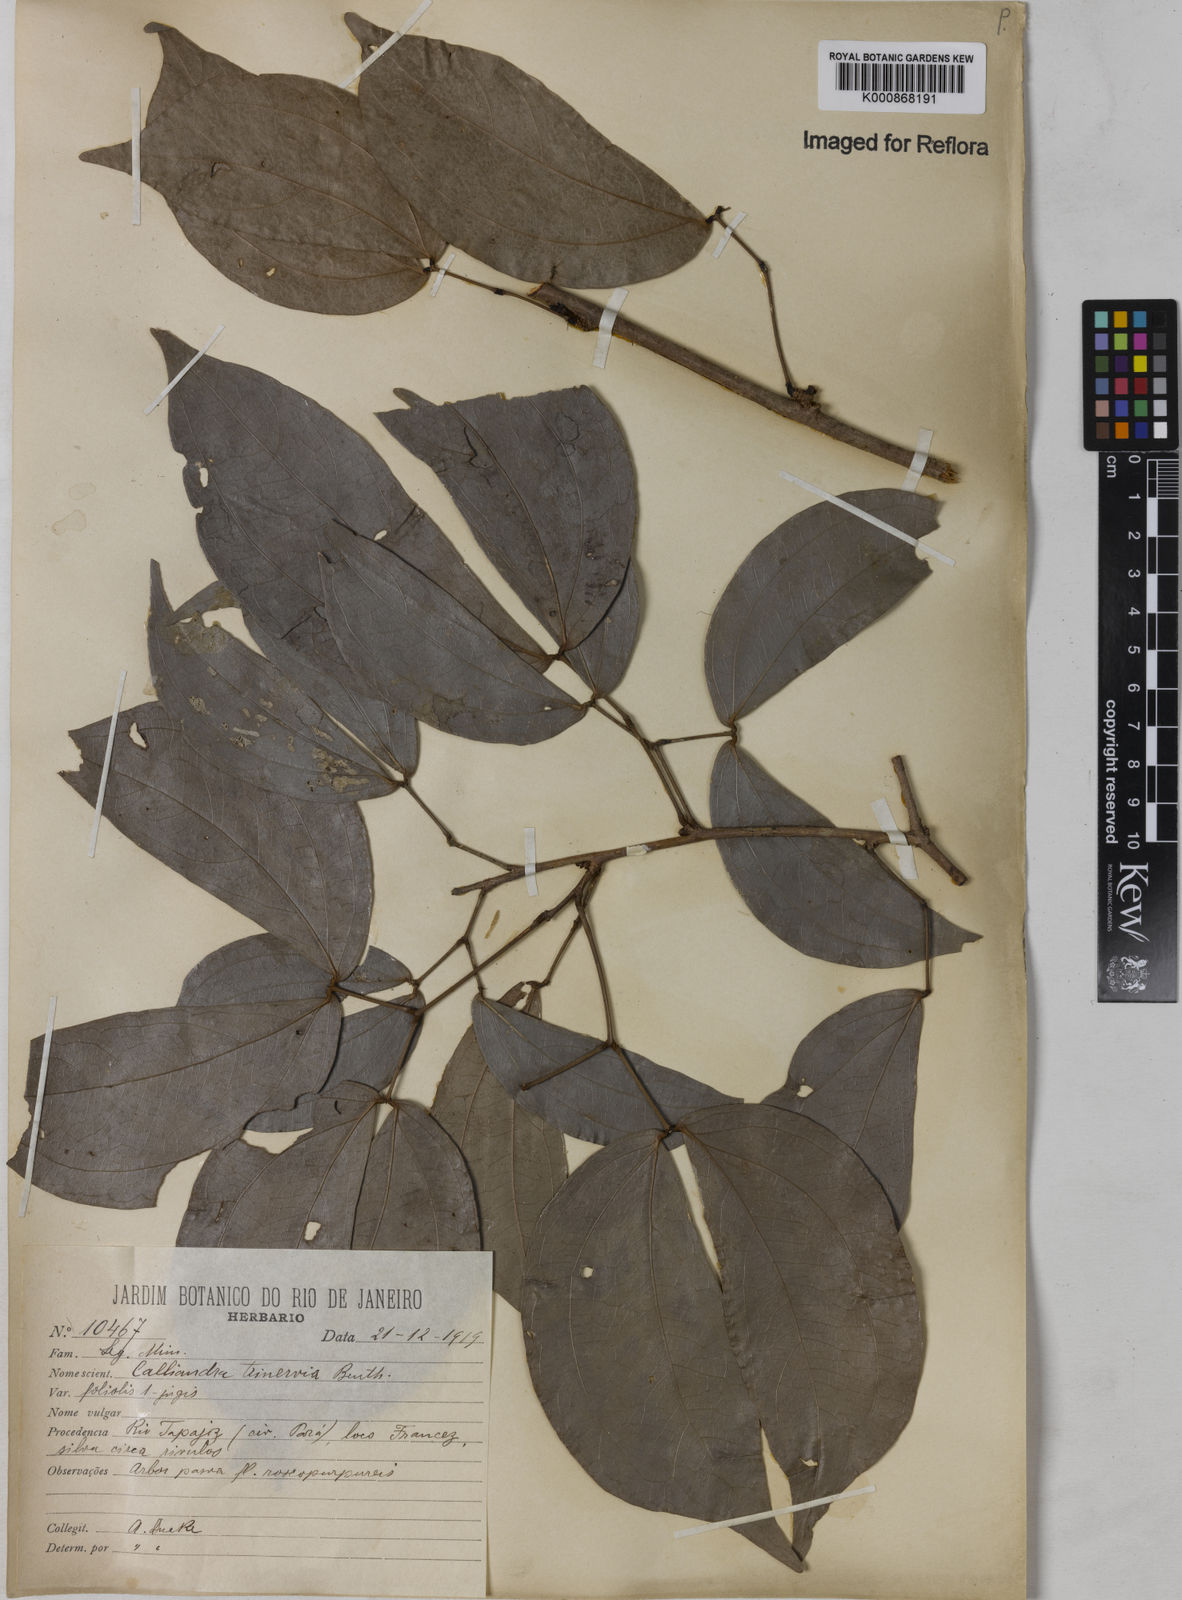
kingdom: Plantae
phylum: Tracheophyta
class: Magnoliopsida
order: Fabales
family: Fabaceae
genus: Calliandra
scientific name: Calliandra trinervia
